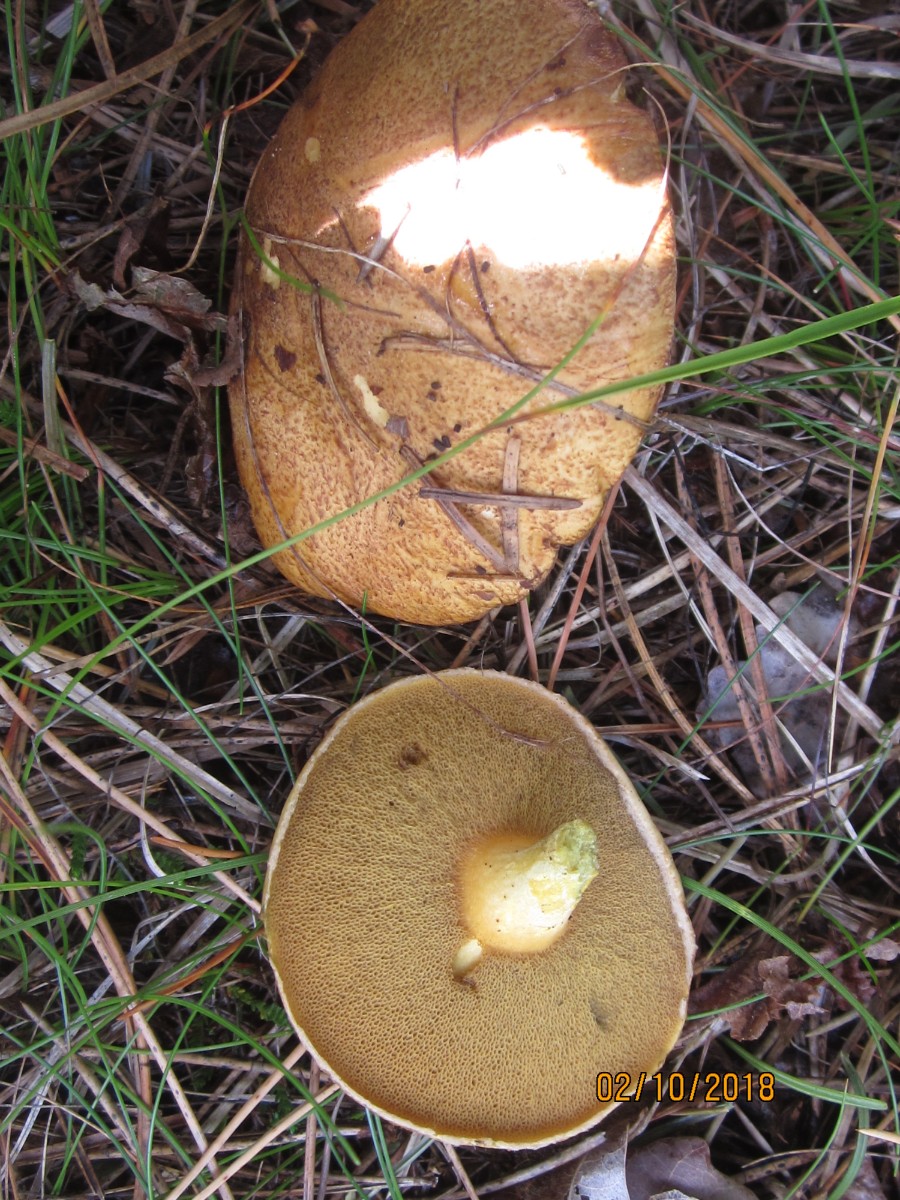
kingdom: Fungi
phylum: Basidiomycota
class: Agaricomycetes
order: Boletales
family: Suillaceae
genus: Suillus
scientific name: Suillus variegatus
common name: broget slimrørhat
